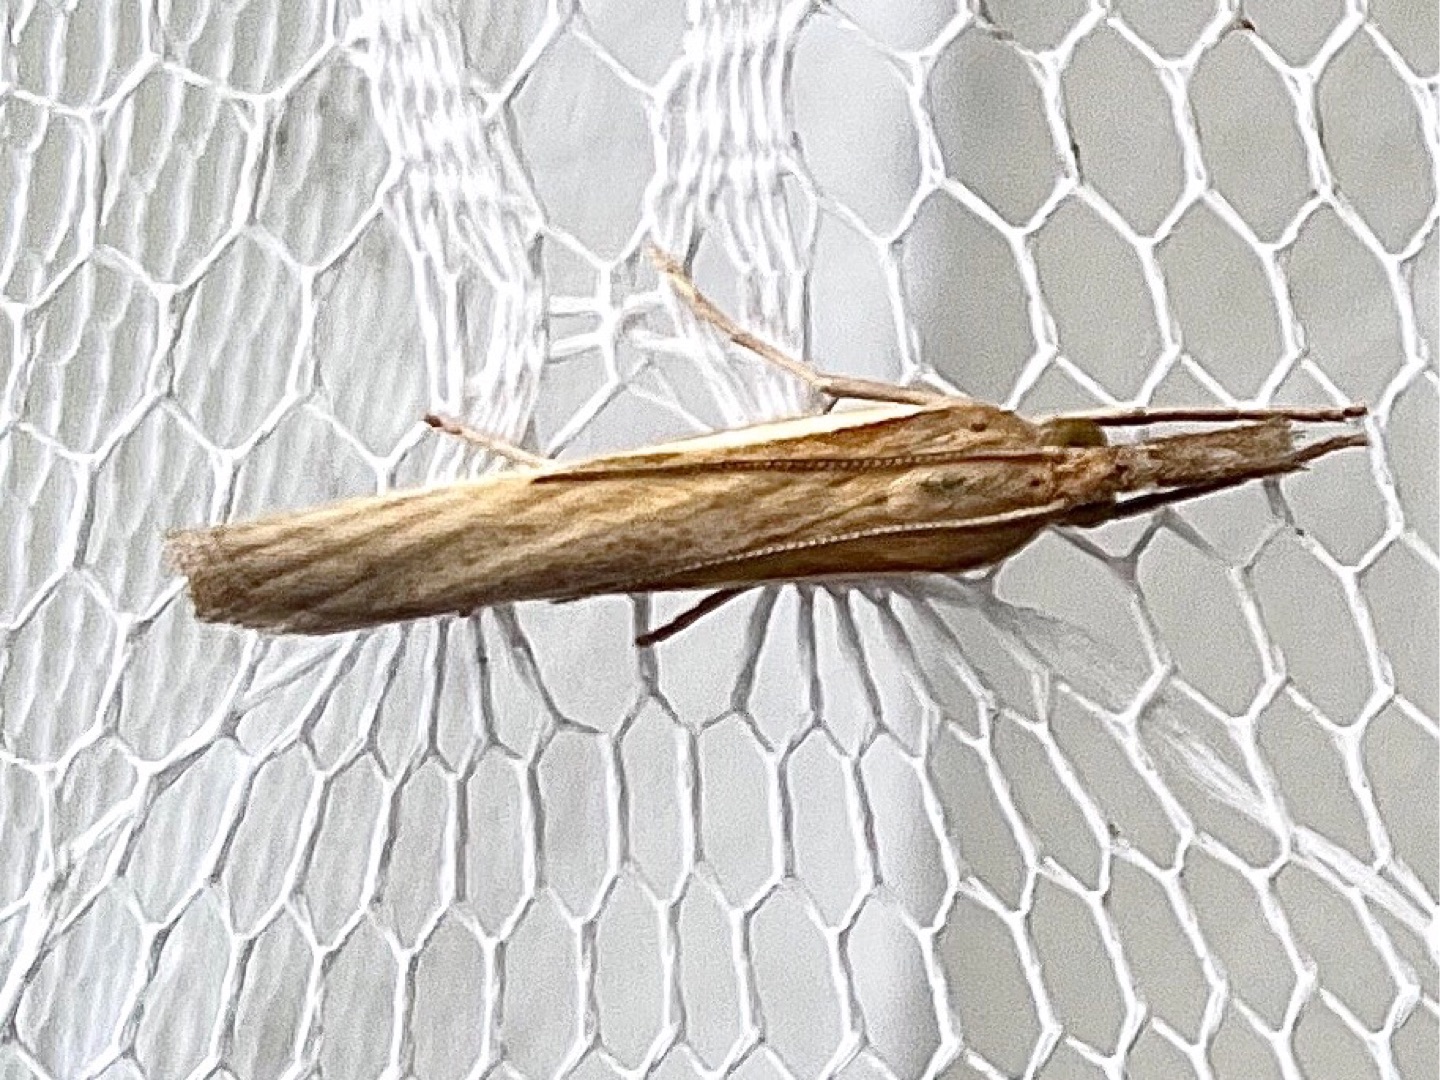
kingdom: Animalia
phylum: Arthropoda
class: Insecta
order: Lepidoptera
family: Crambidae
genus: Agriphila
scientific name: Agriphila tristellus
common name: Okkergult græsmøl
